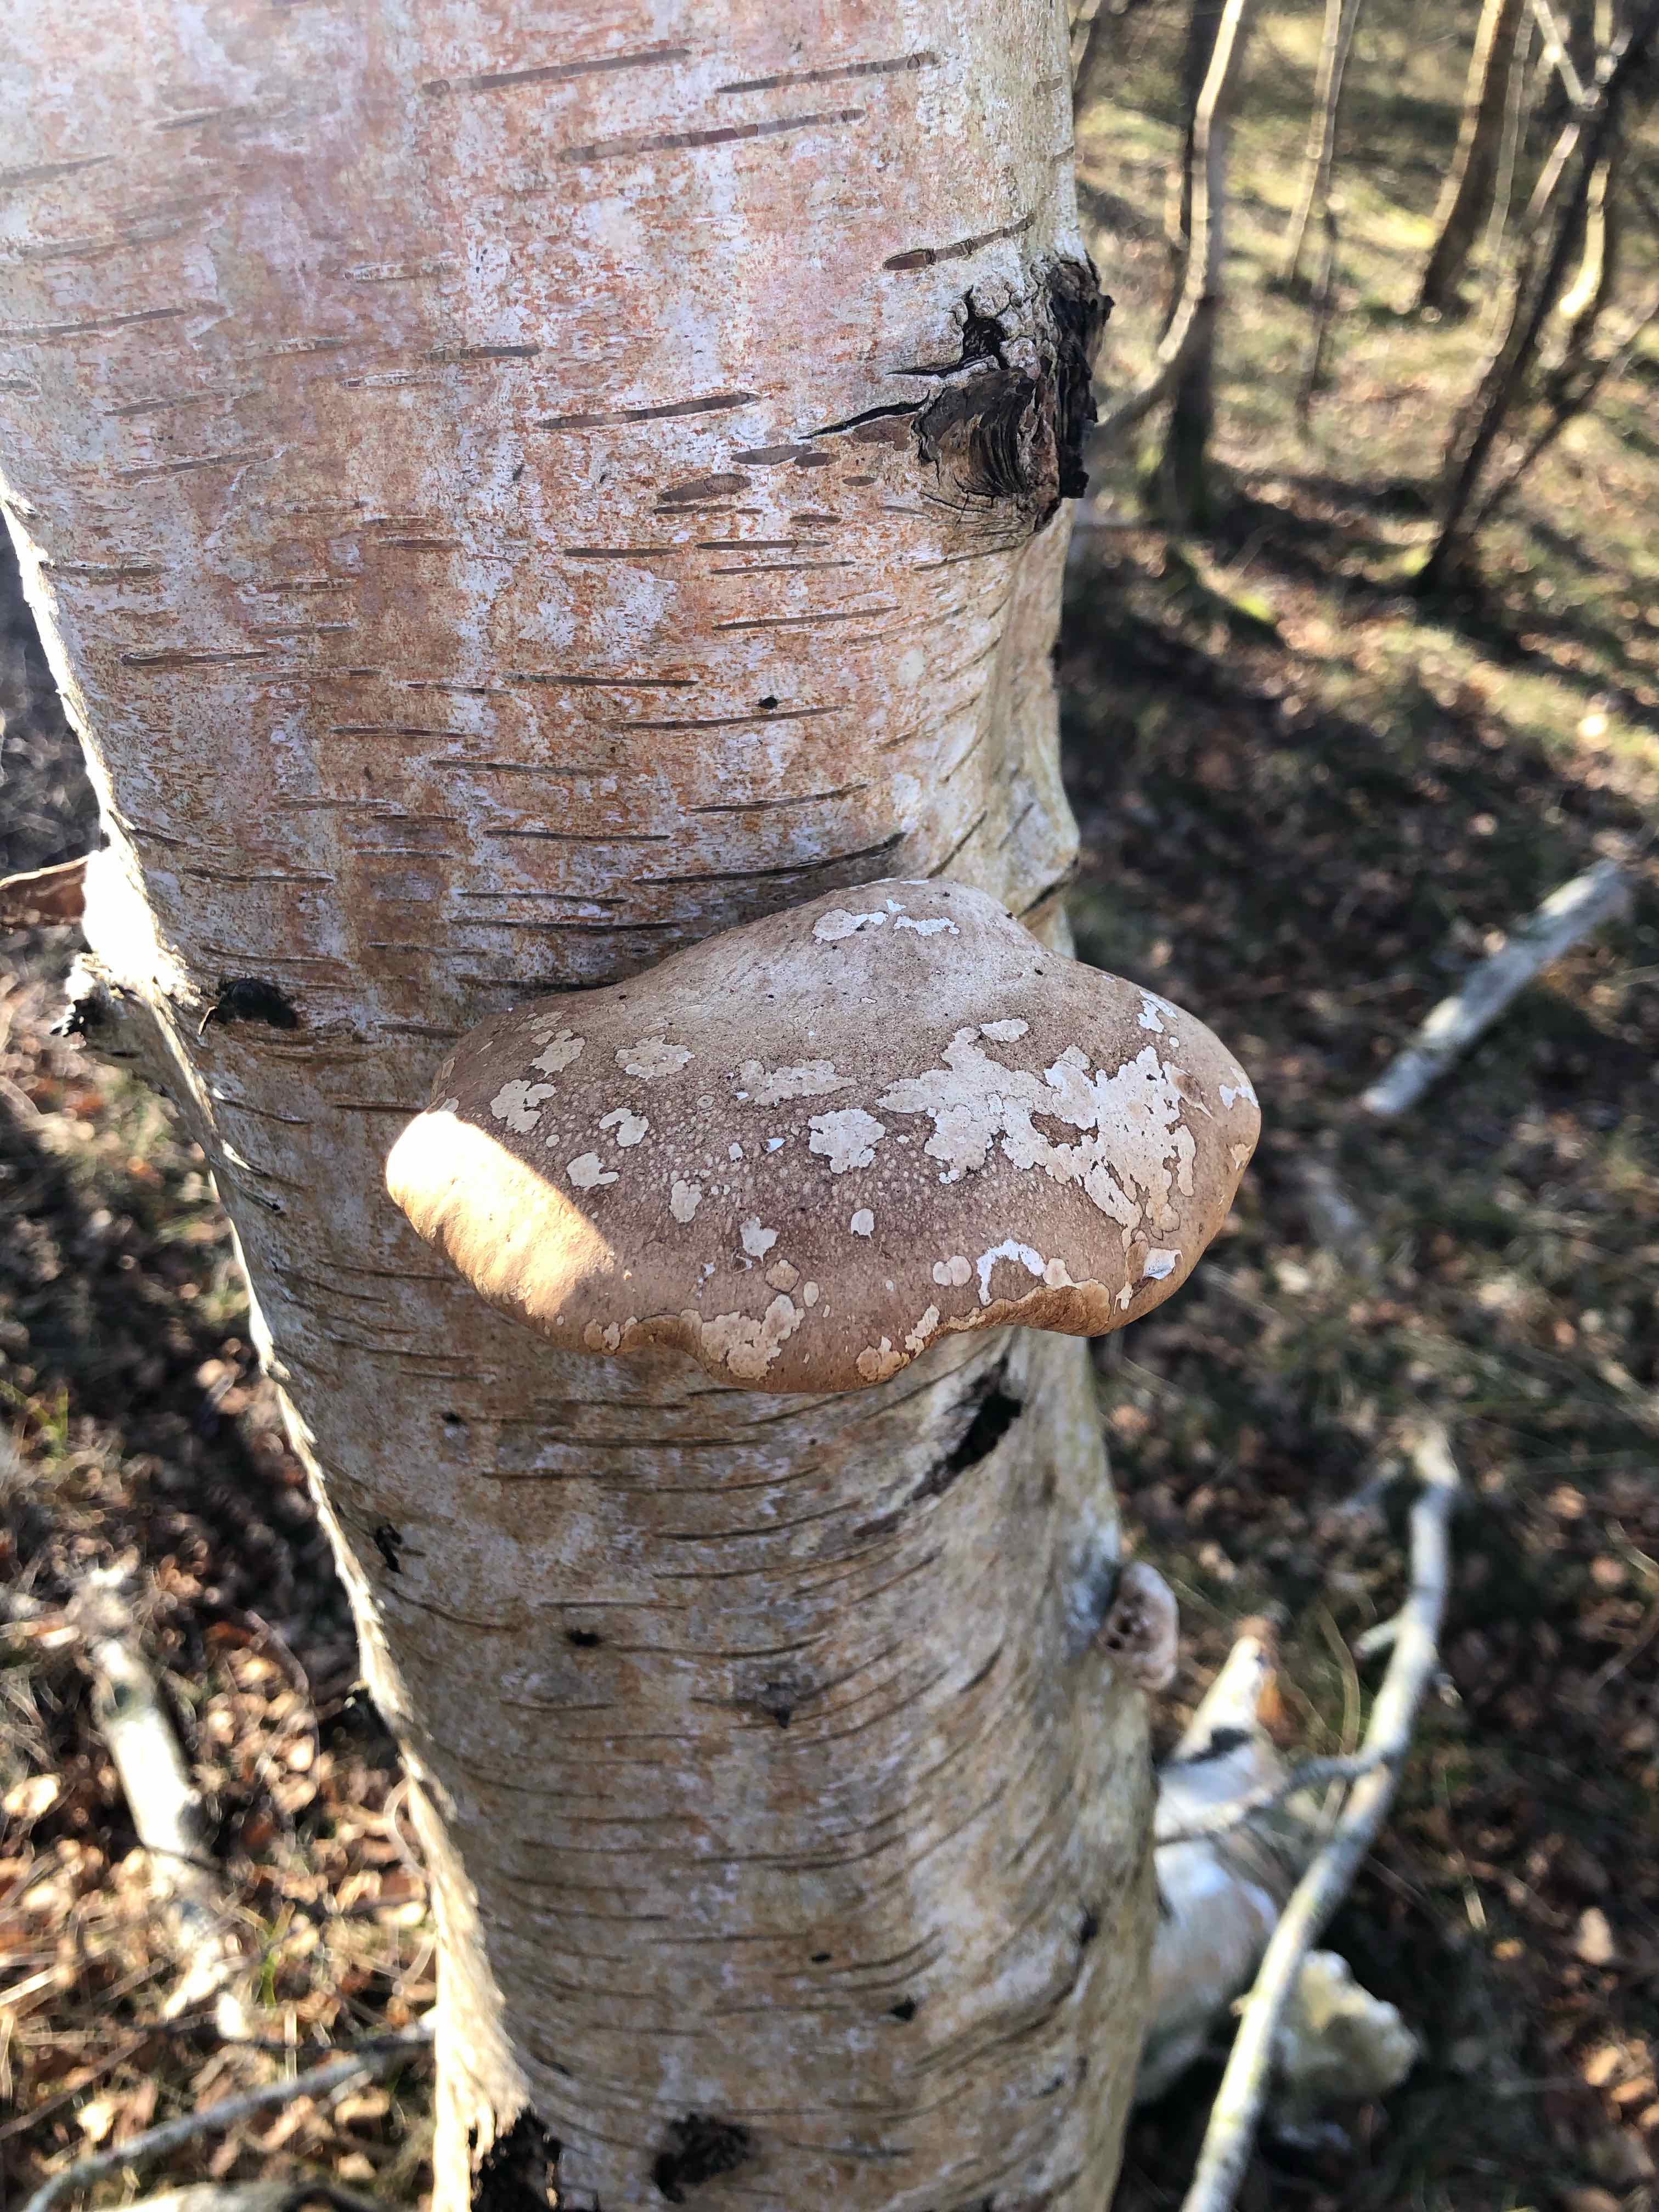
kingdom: Fungi
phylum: Basidiomycota
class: Agaricomycetes
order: Polyporales
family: Fomitopsidaceae
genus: Fomitopsis
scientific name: Fomitopsis betulina
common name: birkeporesvamp
